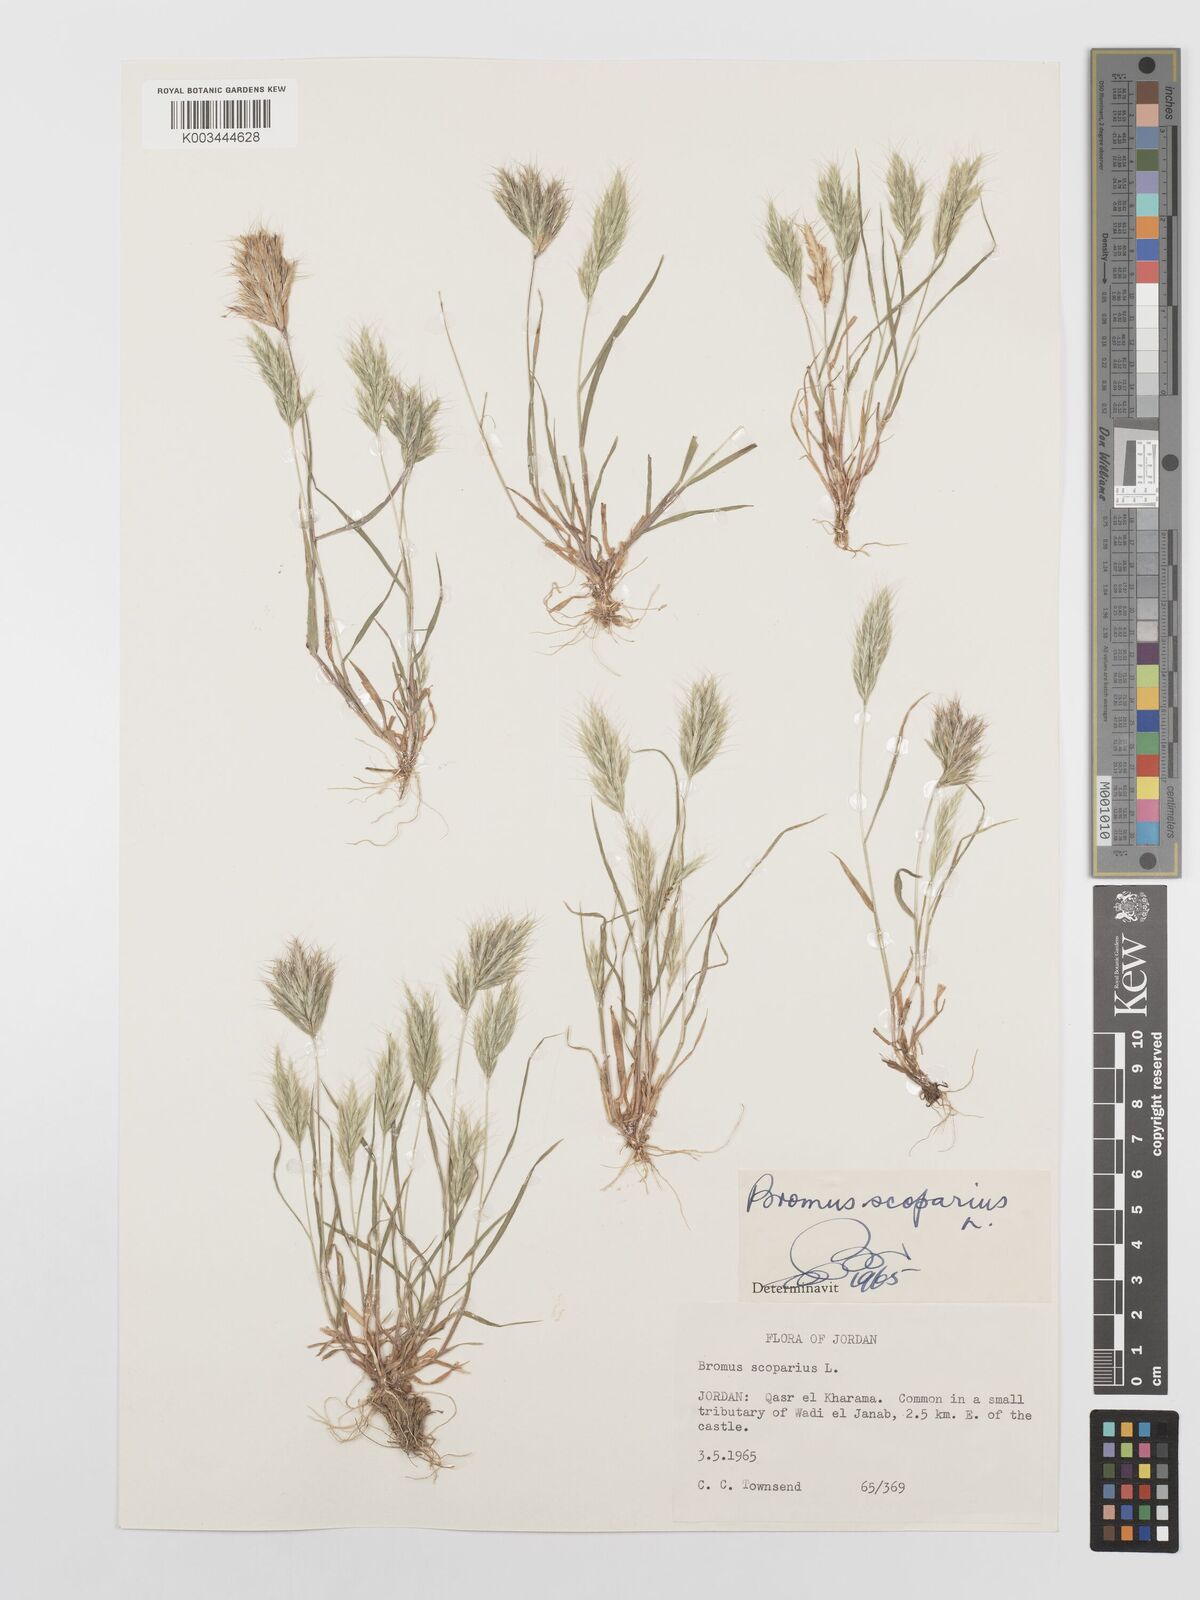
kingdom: Plantae
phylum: Tracheophyta
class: Liliopsida
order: Poales
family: Poaceae
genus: Bromus
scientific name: Bromus scoparius
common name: Broom brome
